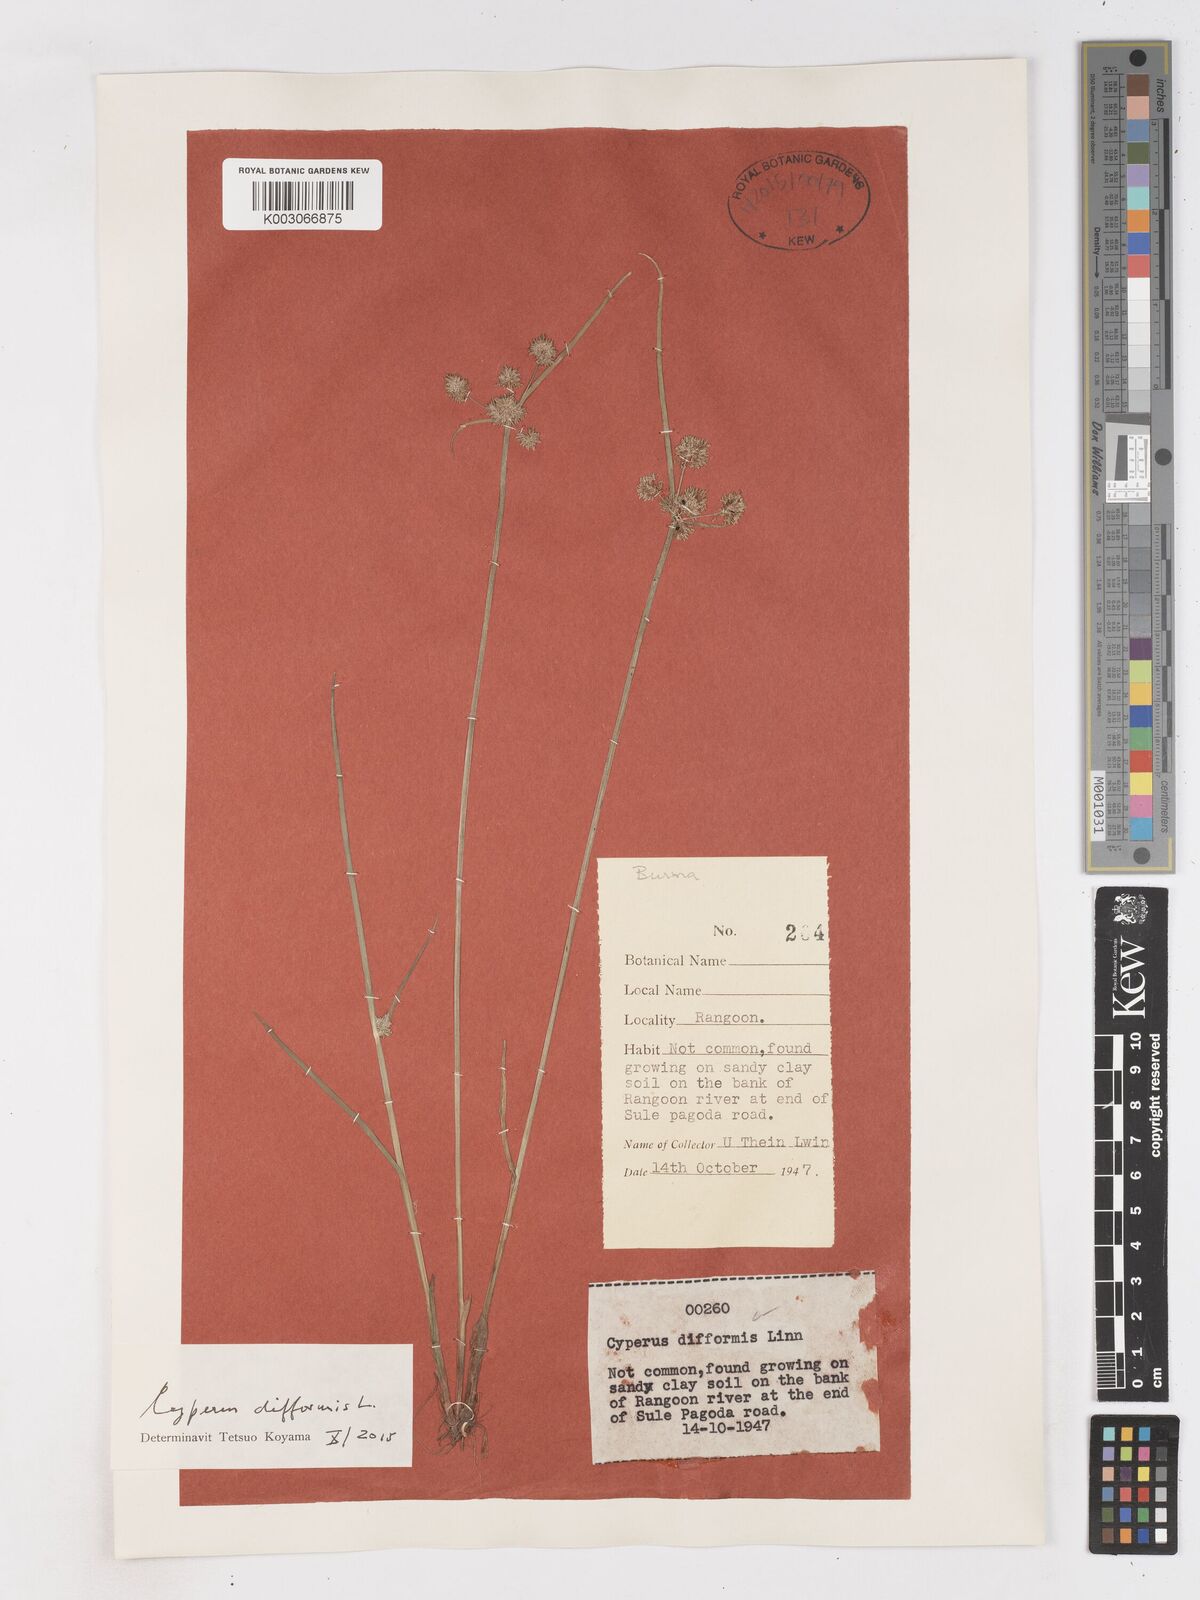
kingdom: Plantae
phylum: Tracheophyta
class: Liliopsida
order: Poales
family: Cyperaceae
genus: Cyperus
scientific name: Cyperus difformis
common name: Variable flatsedge
